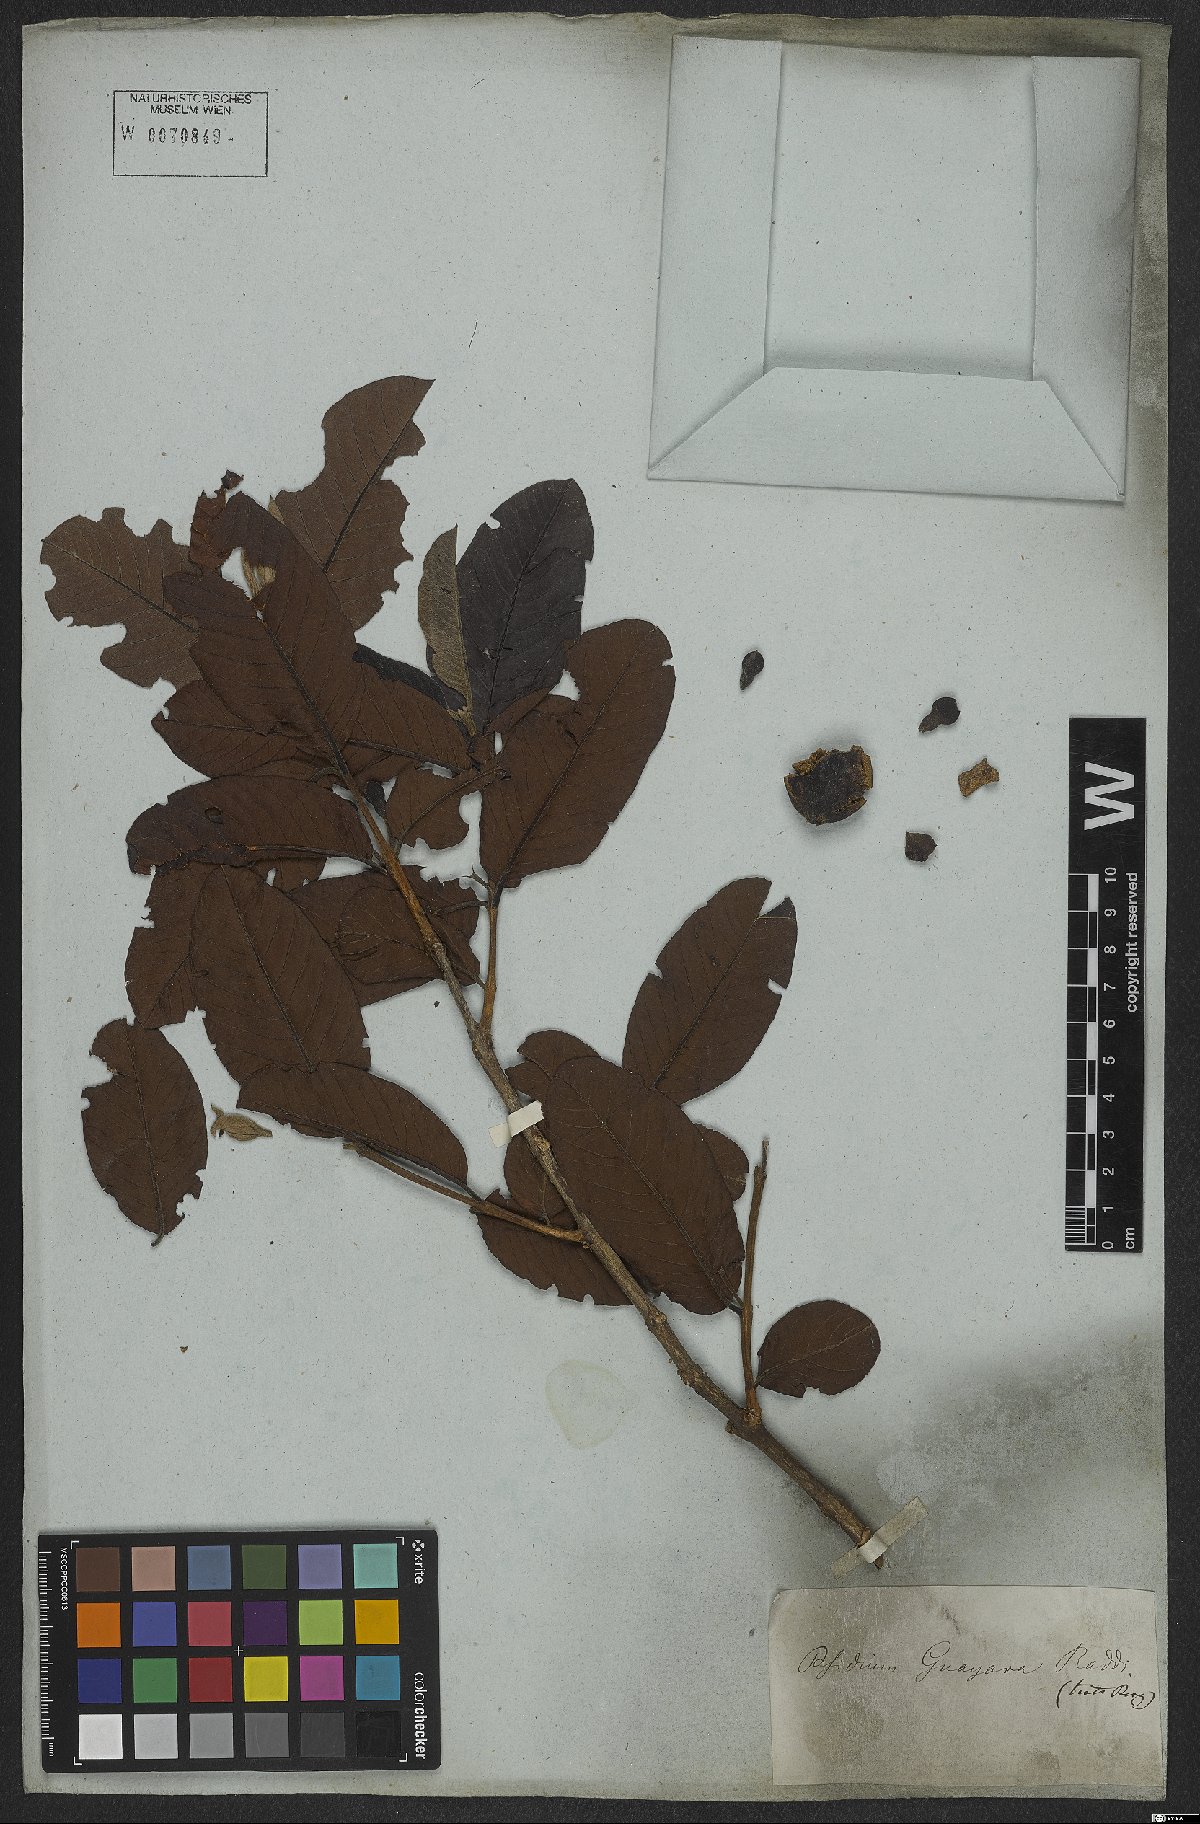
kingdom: Plantae
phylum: Tracheophyta
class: Magnoliopsida
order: Myrtales
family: Myrtaceae
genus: Psidium
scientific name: Psidium guajava
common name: Guava
